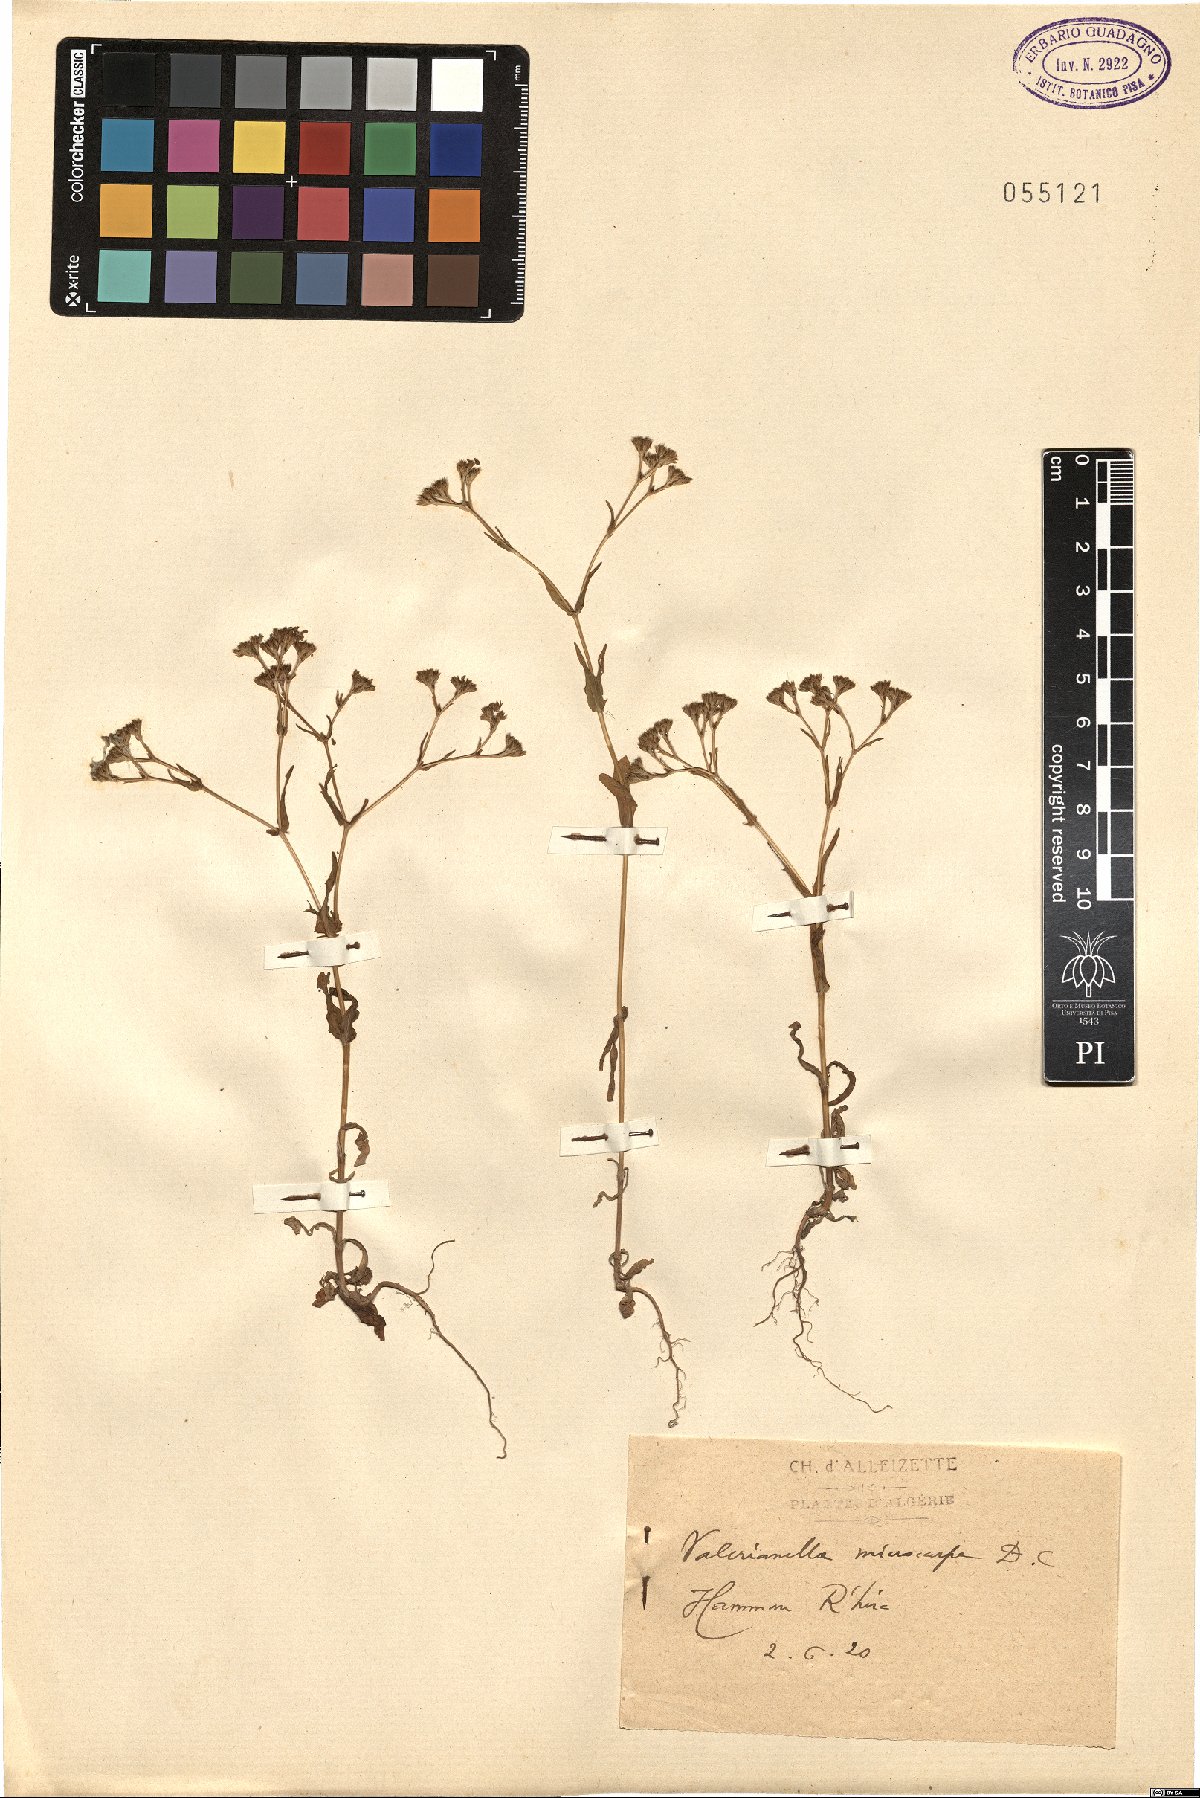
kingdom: Plantae
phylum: Tracheophyta
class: Magnoliopsida
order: Dipsacales
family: Caprifoliaceae
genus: Valerianella
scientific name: Valerianella microcarpa
